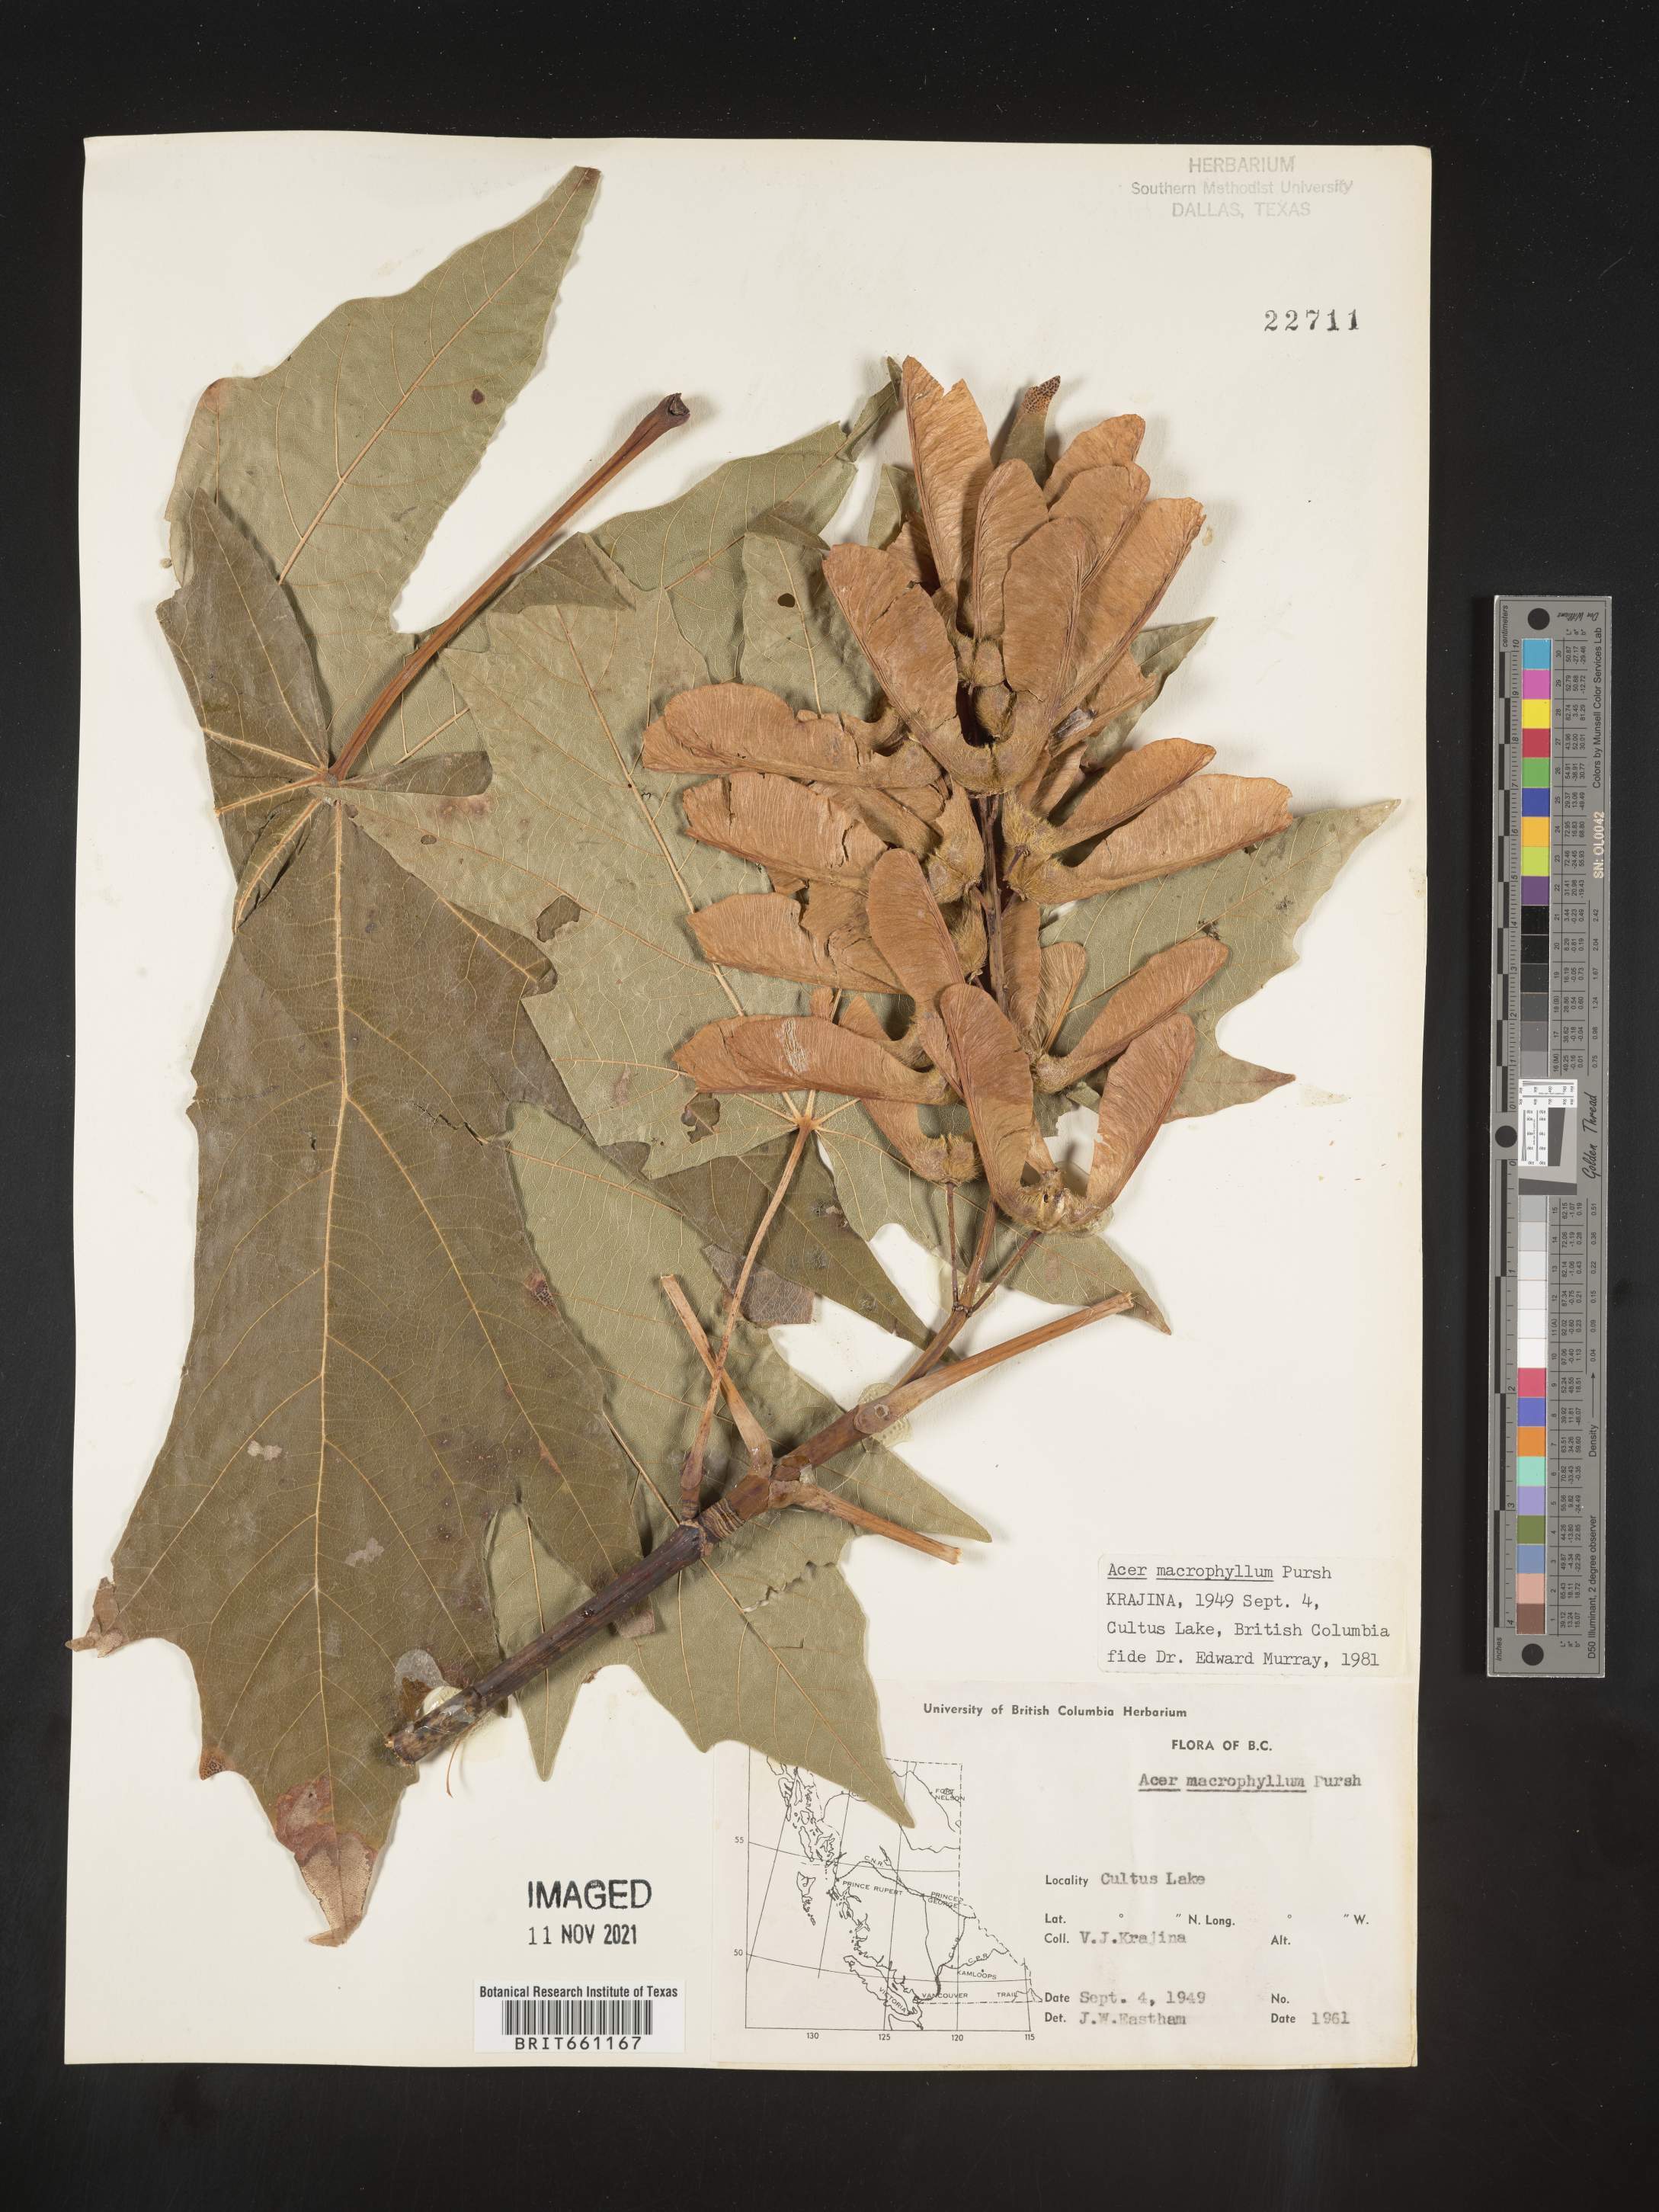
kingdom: Plantae
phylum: Tracheophyta
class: Magnoliopsida
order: Sapindales
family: Sapindaceae
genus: Acer
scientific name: Acer macrophyllum
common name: Oregon maple
